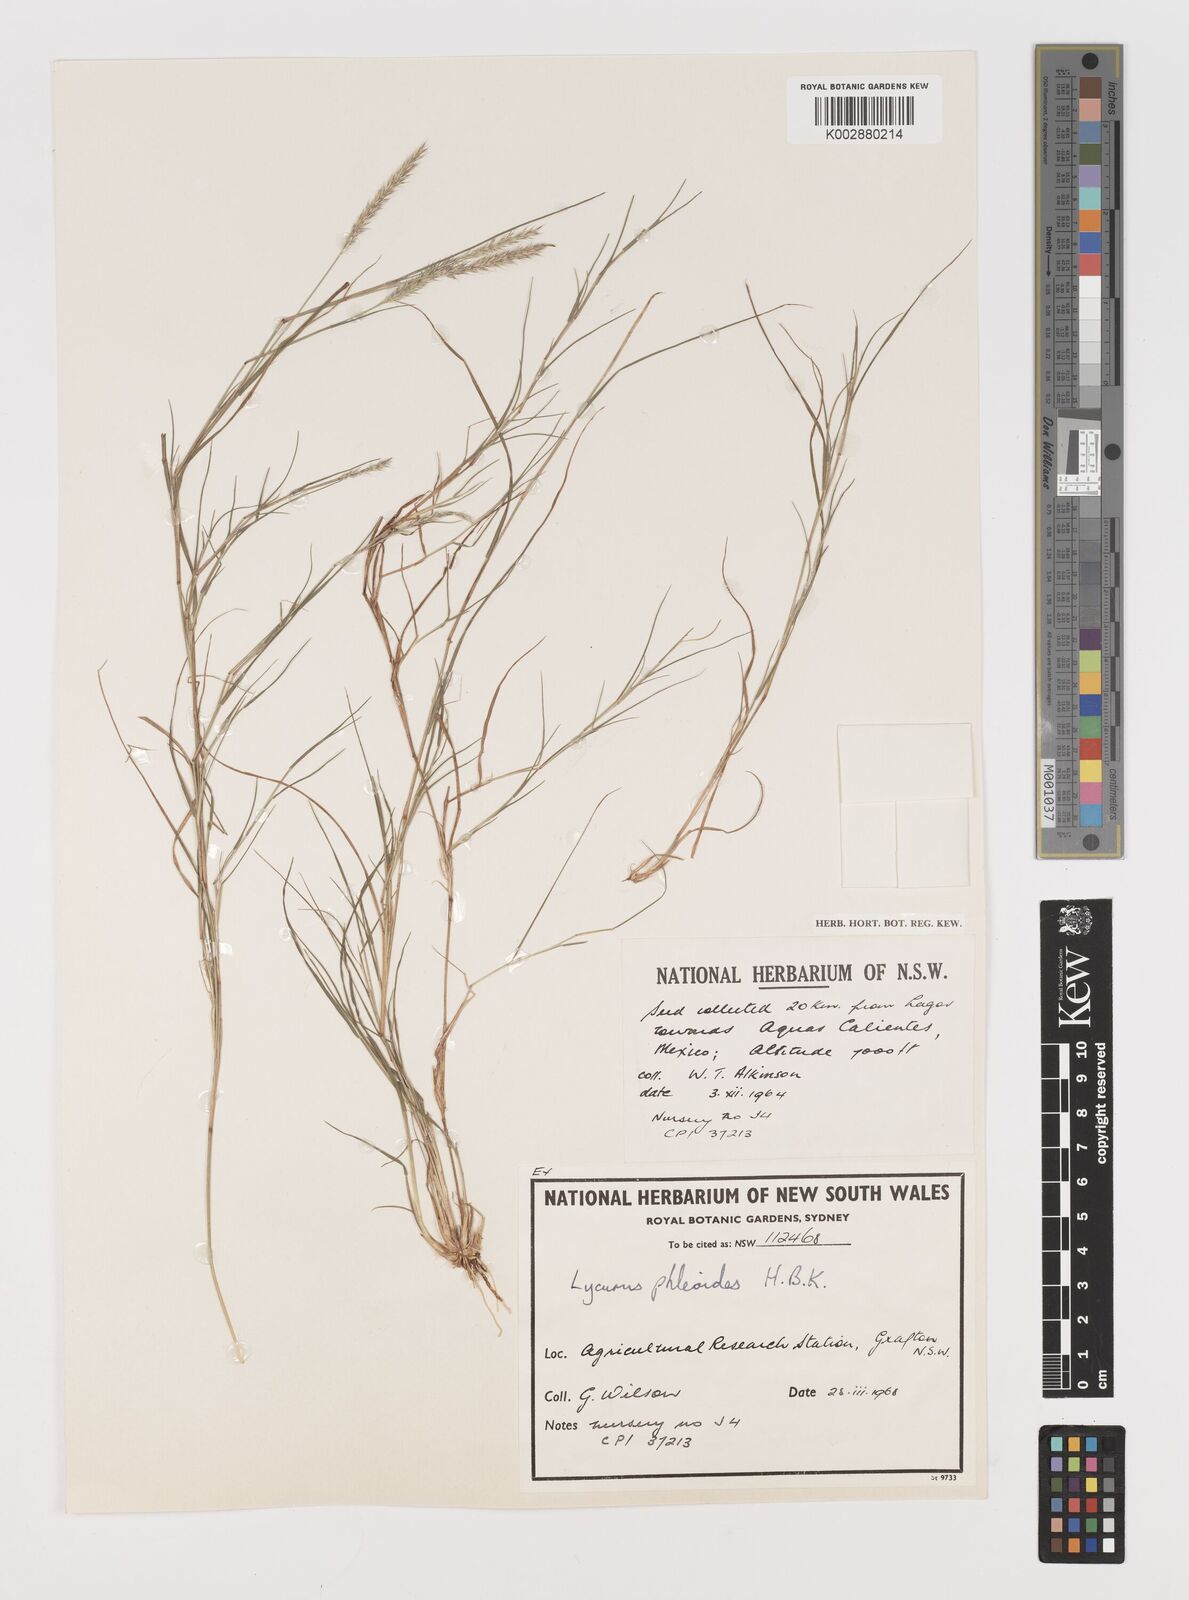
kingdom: Plantae
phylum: Tracheophyta
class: Liliopsida
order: Poales
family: Poaceae
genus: Muhlenbergia
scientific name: Muhlenbergia phleoides
